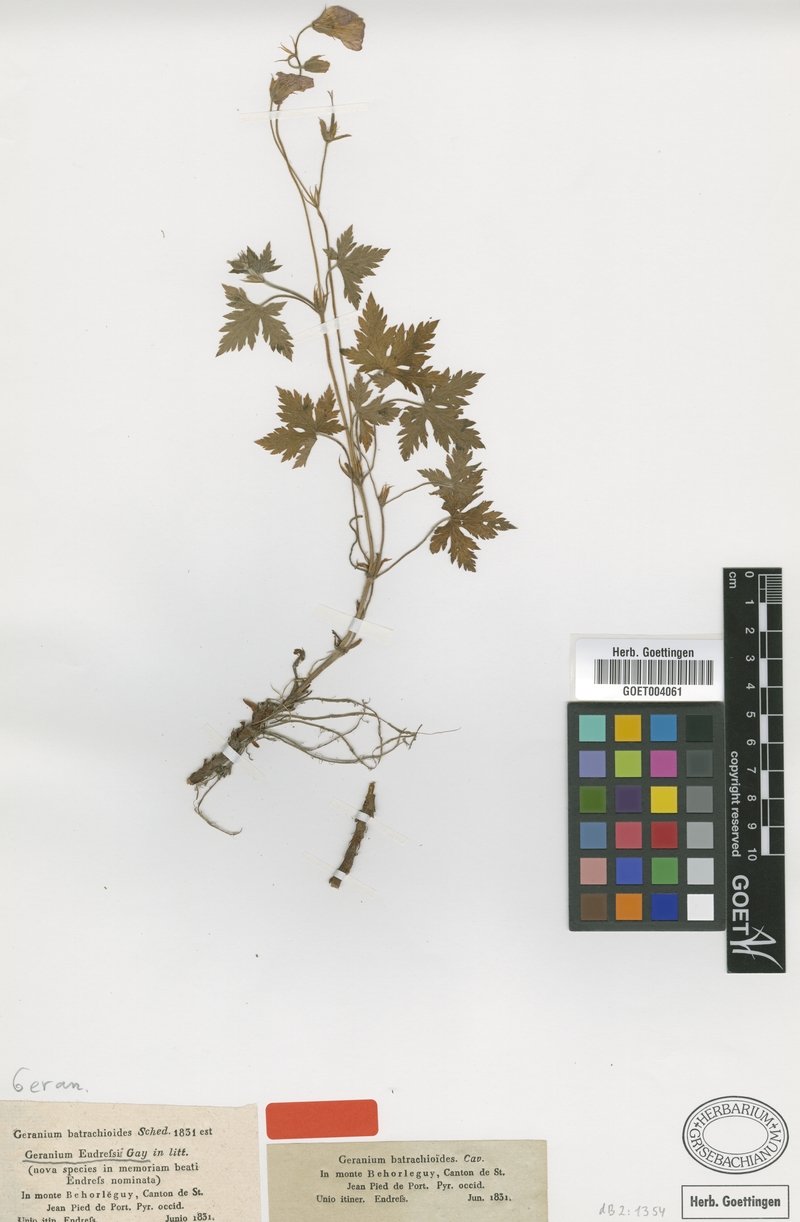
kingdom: Plantae
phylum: Tracheophyta
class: Magnoliopsida
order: Geraniales
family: Geraniaceae
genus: Geranium
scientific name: Geranium endressii
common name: French crane's-bill
